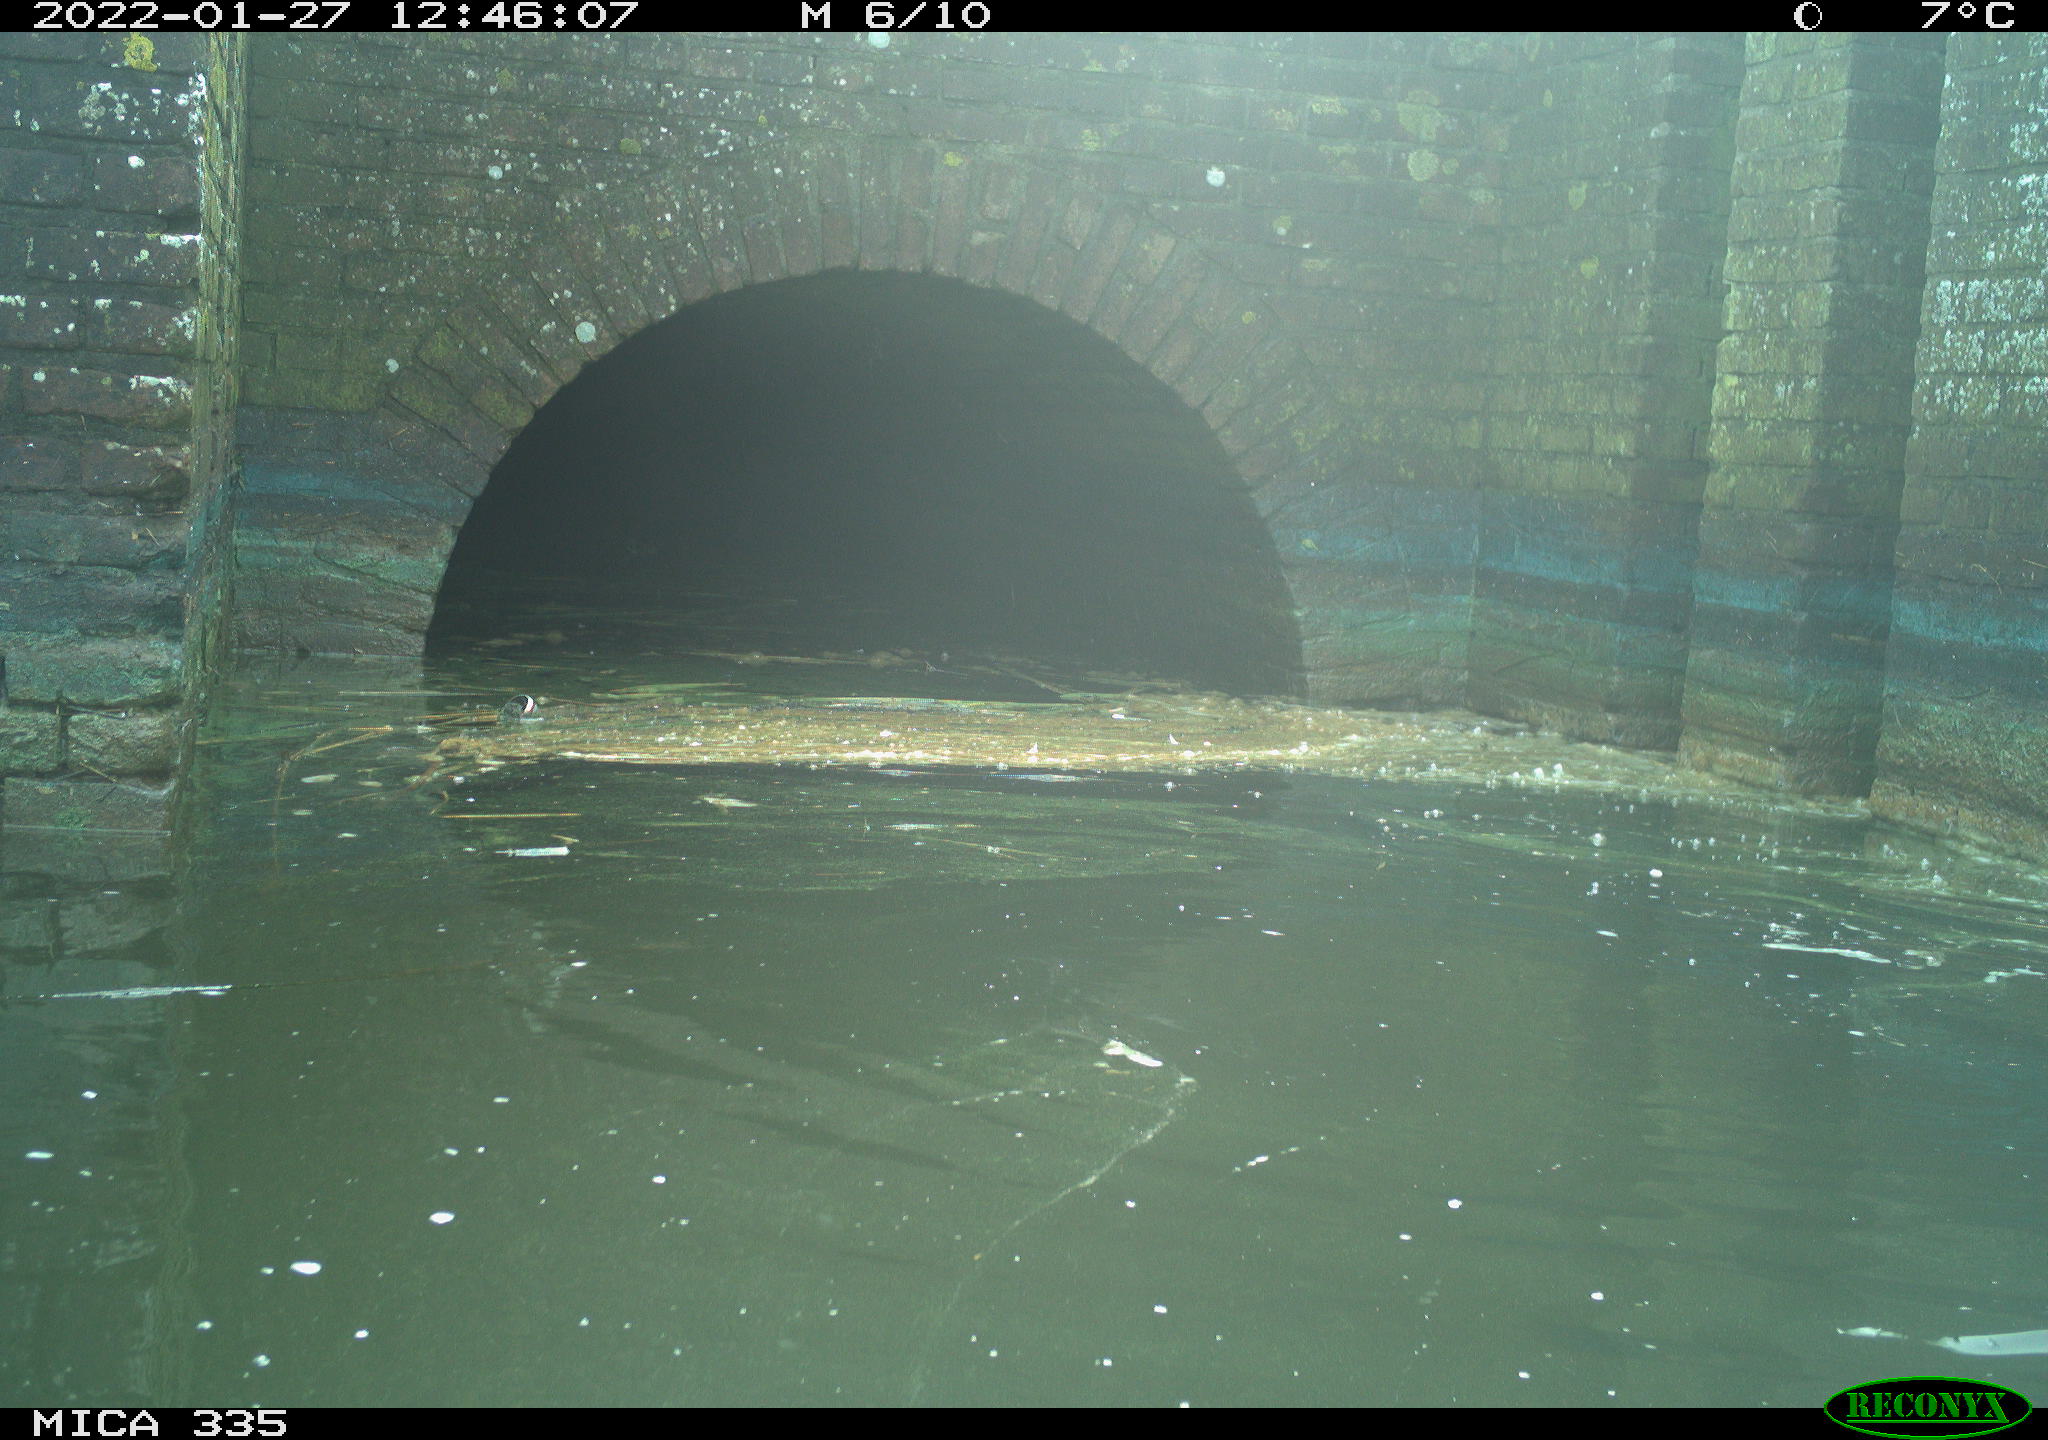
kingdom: Animalia
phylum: Chordata
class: Aves
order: Suliformes
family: Phalacrocoracidae
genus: Phalacrocorax
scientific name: Phalacrocorax carbo
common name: Great cormorant
